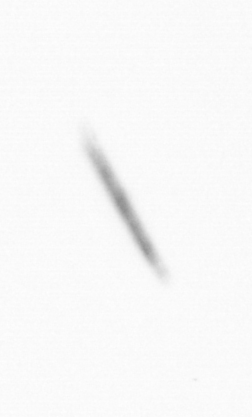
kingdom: Chromista
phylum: Ochrophyta
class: Bacillariophyceae
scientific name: Bacillariophyceae
